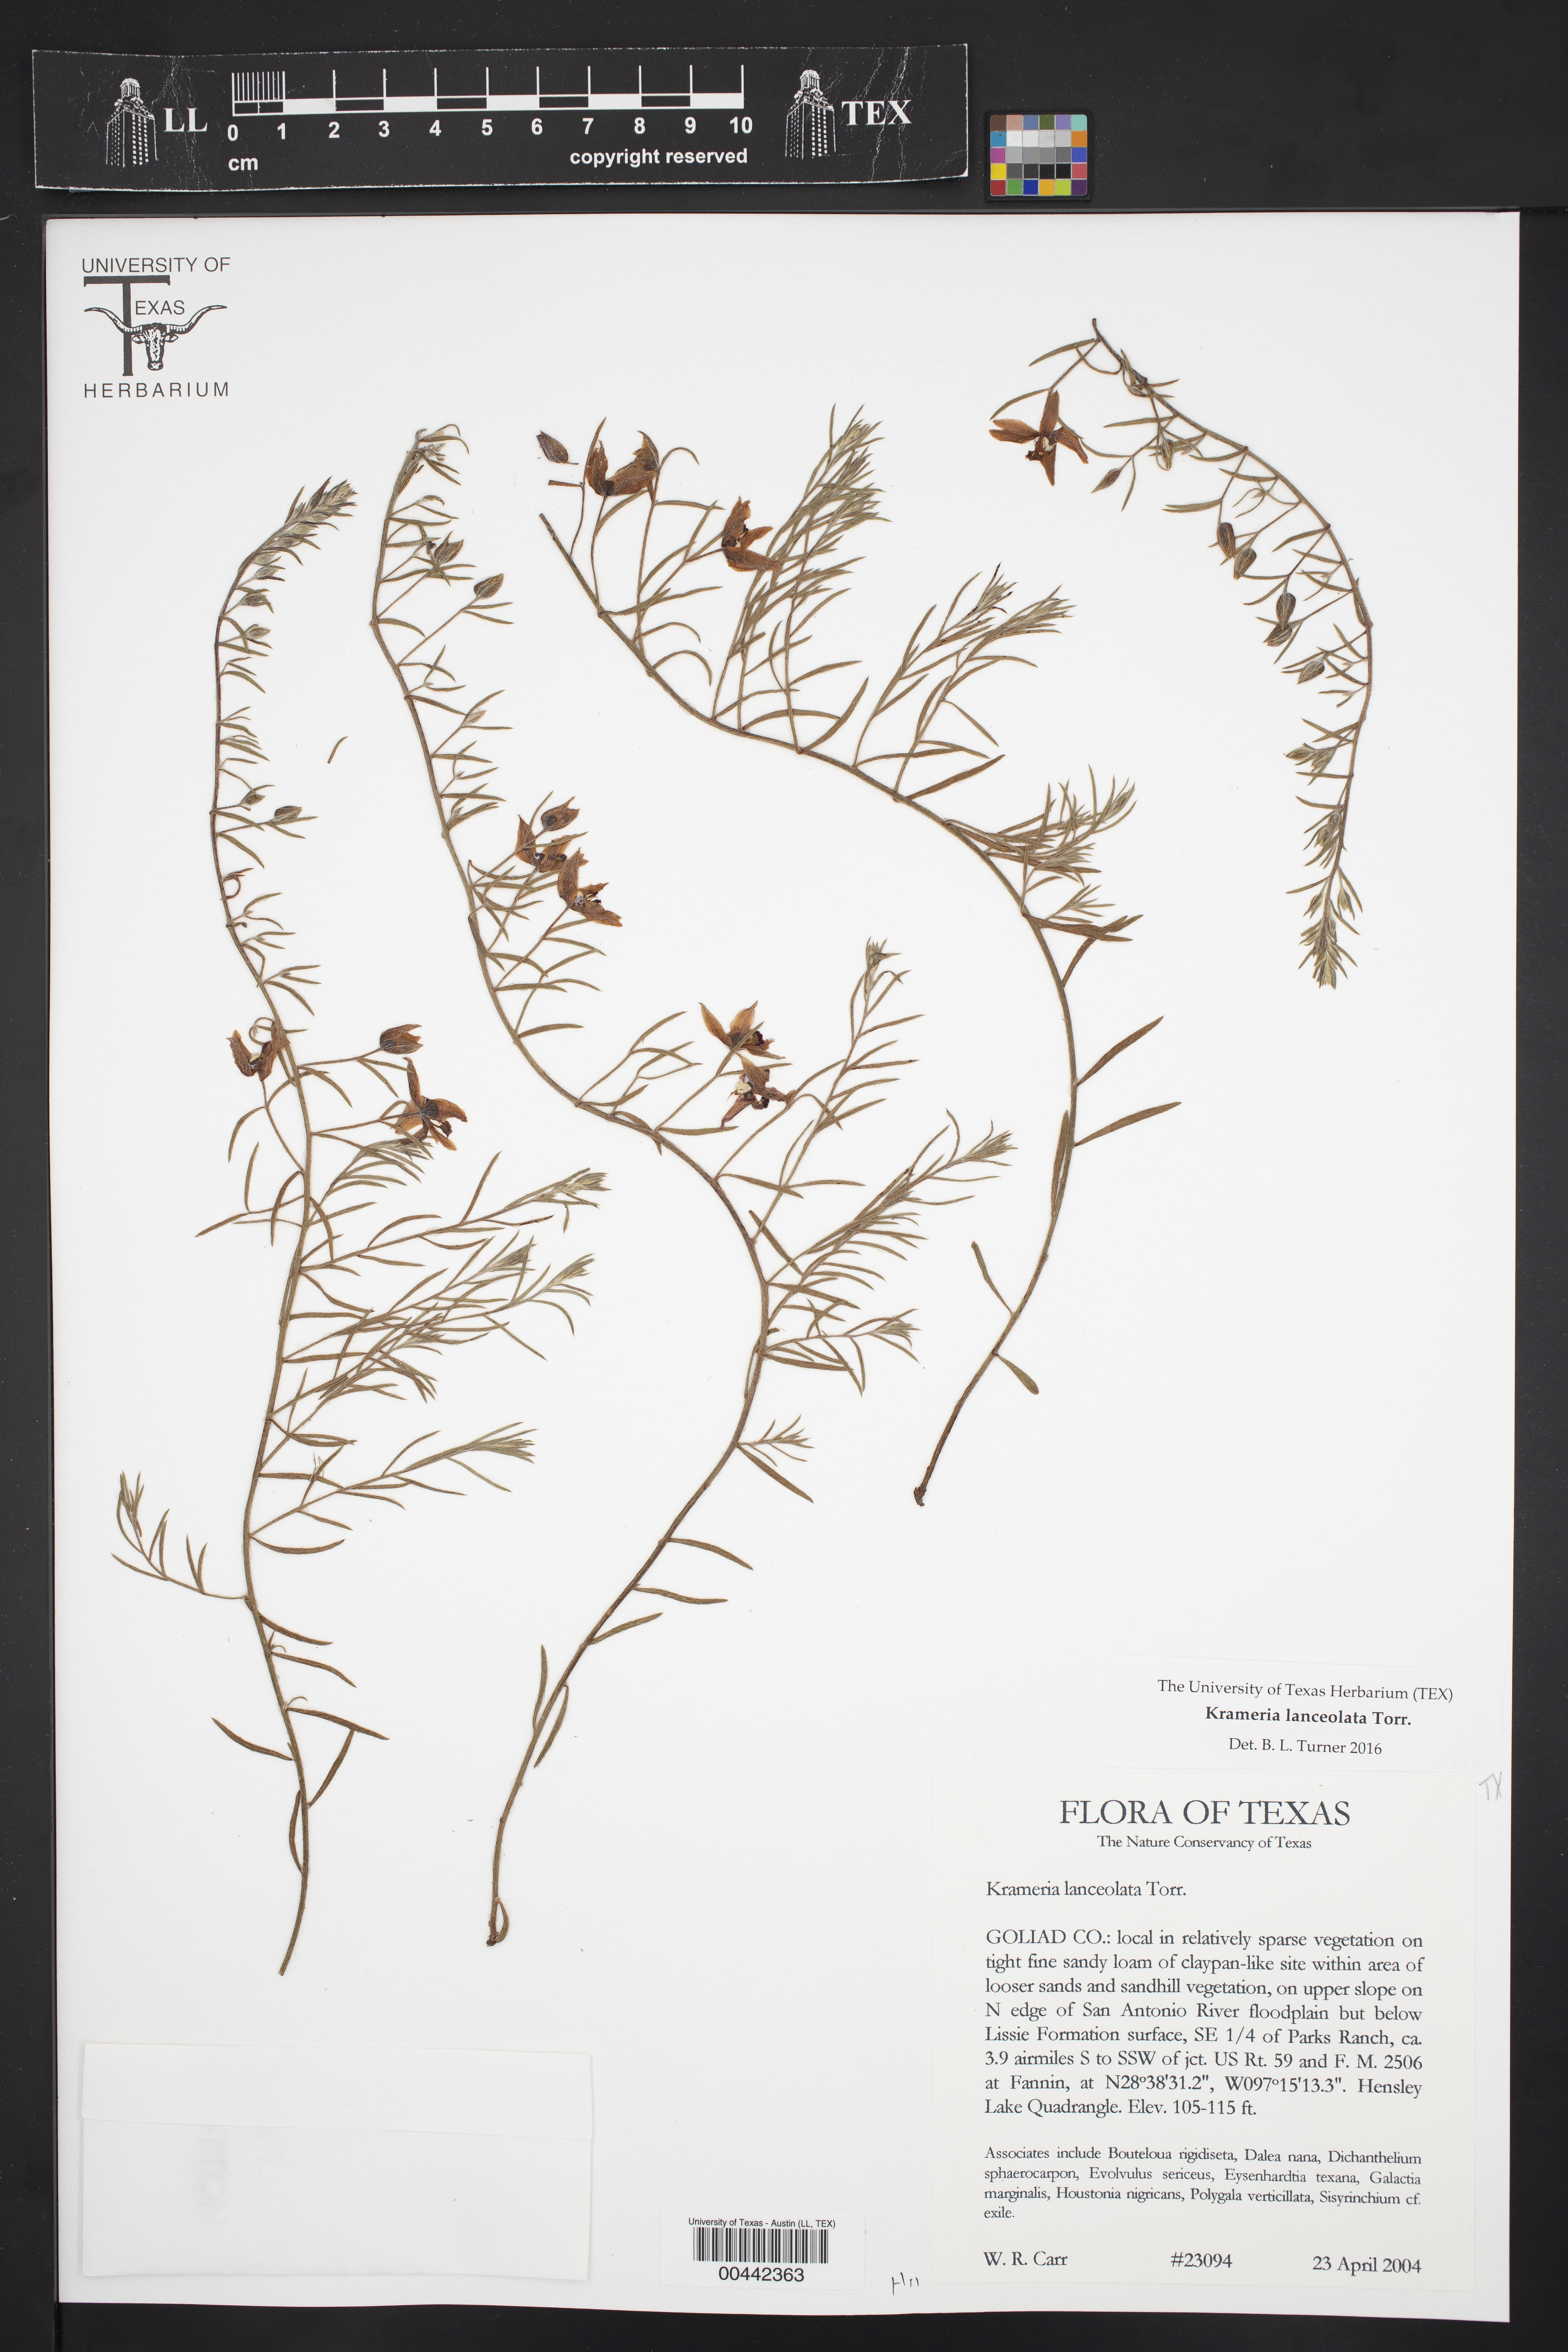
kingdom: Plantae
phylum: Tracheophyta
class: Magnoliopsida
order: Zygophyllales
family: Krameriaceae
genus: Krameria
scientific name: Krameria lanceolata
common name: Ratany
